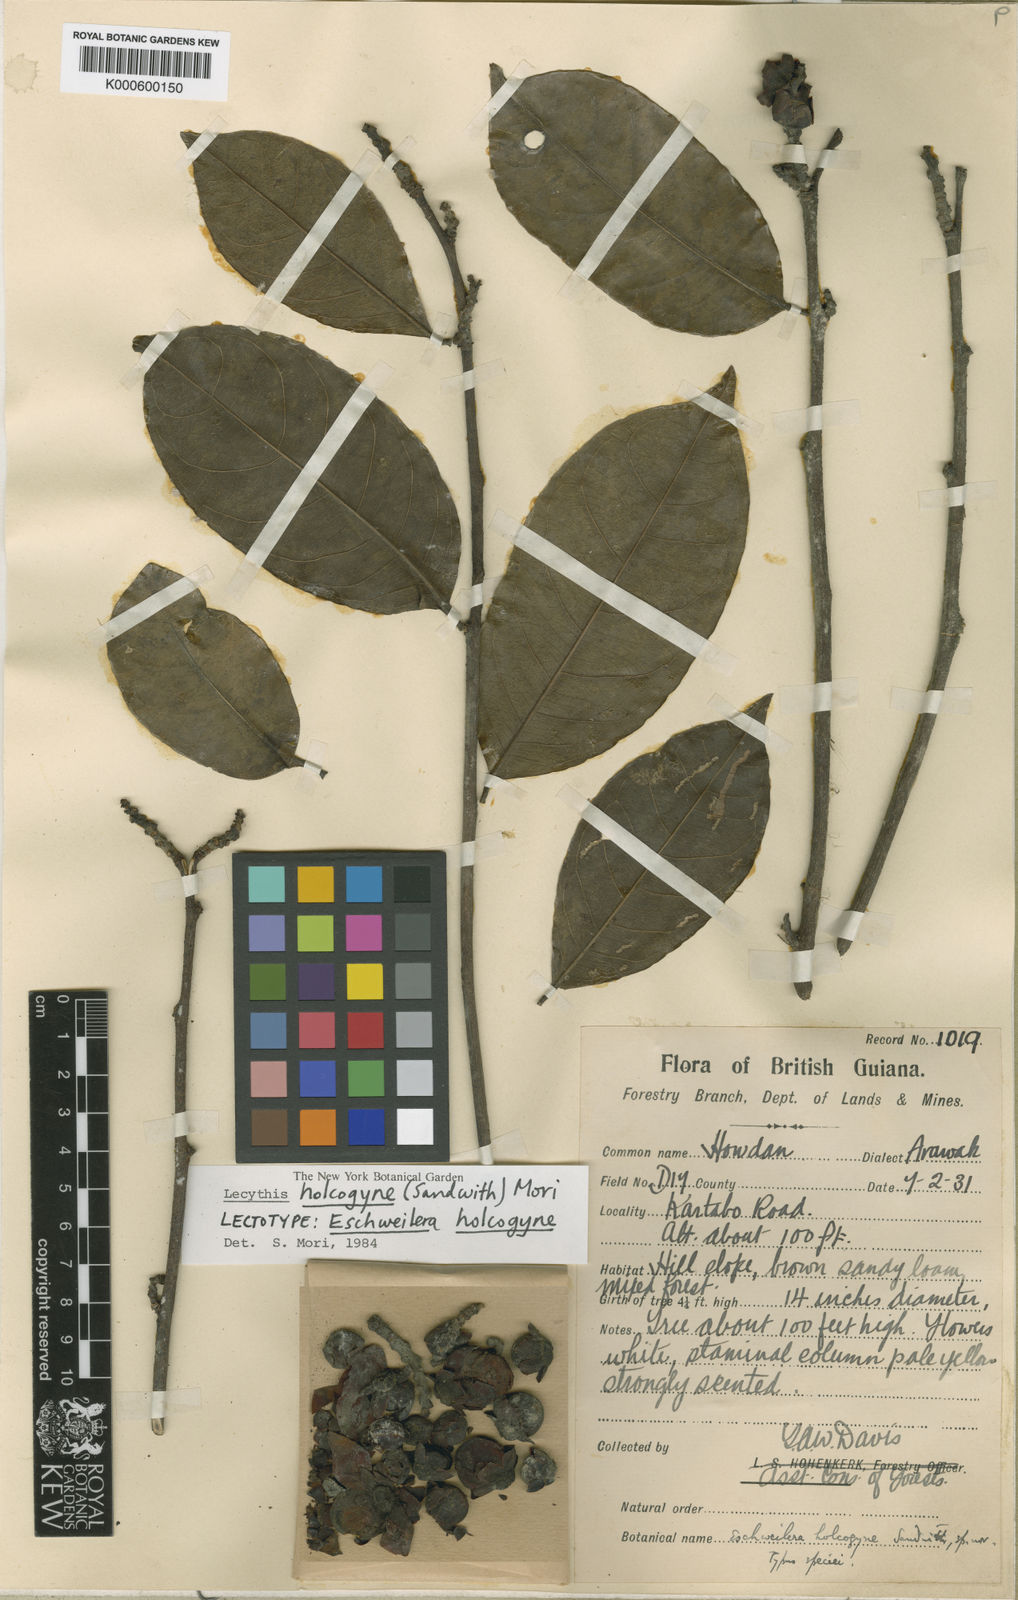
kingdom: Plantae
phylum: Tracheophyta
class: Magnoliopsida
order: Ericales
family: Lecythidaceae
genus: Lecythis
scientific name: Lecythis holcogyne
